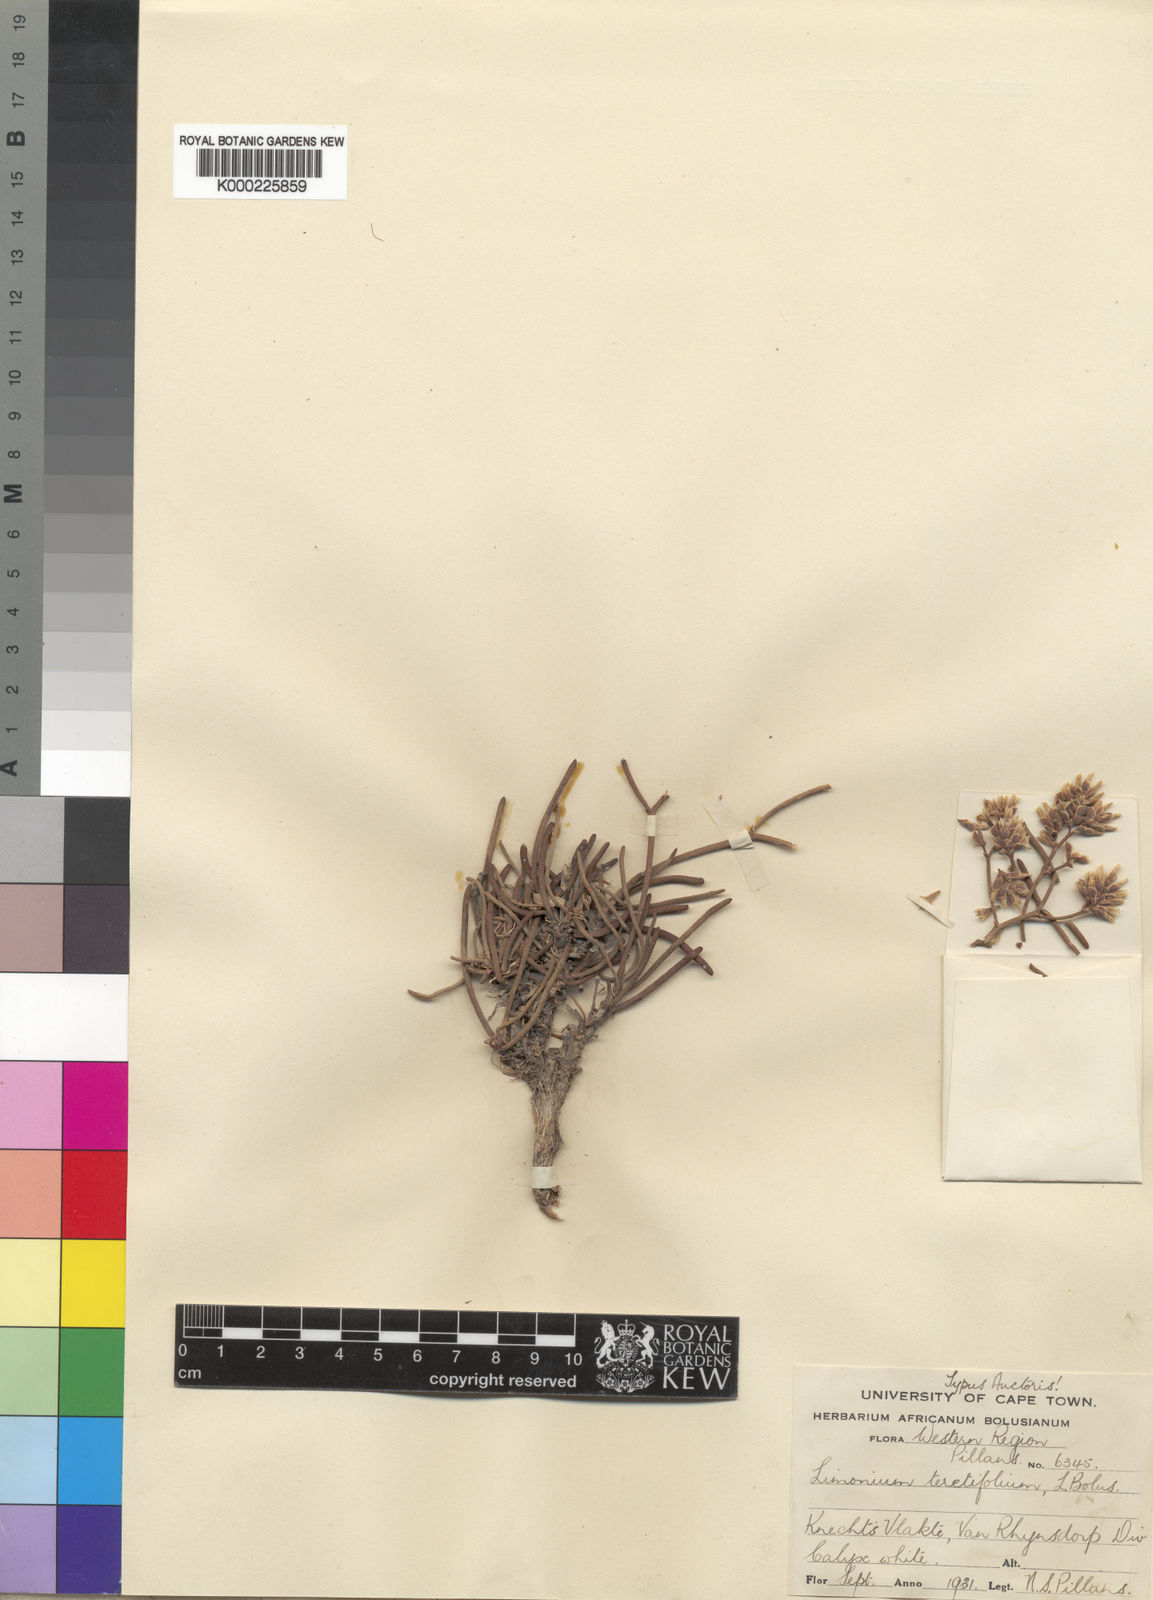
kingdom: Plantae
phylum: Tracheophyta
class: Magnoliopsida
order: Caryophyllales
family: Plumbaginaceae
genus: Limonium
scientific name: Limonium teretifolium
